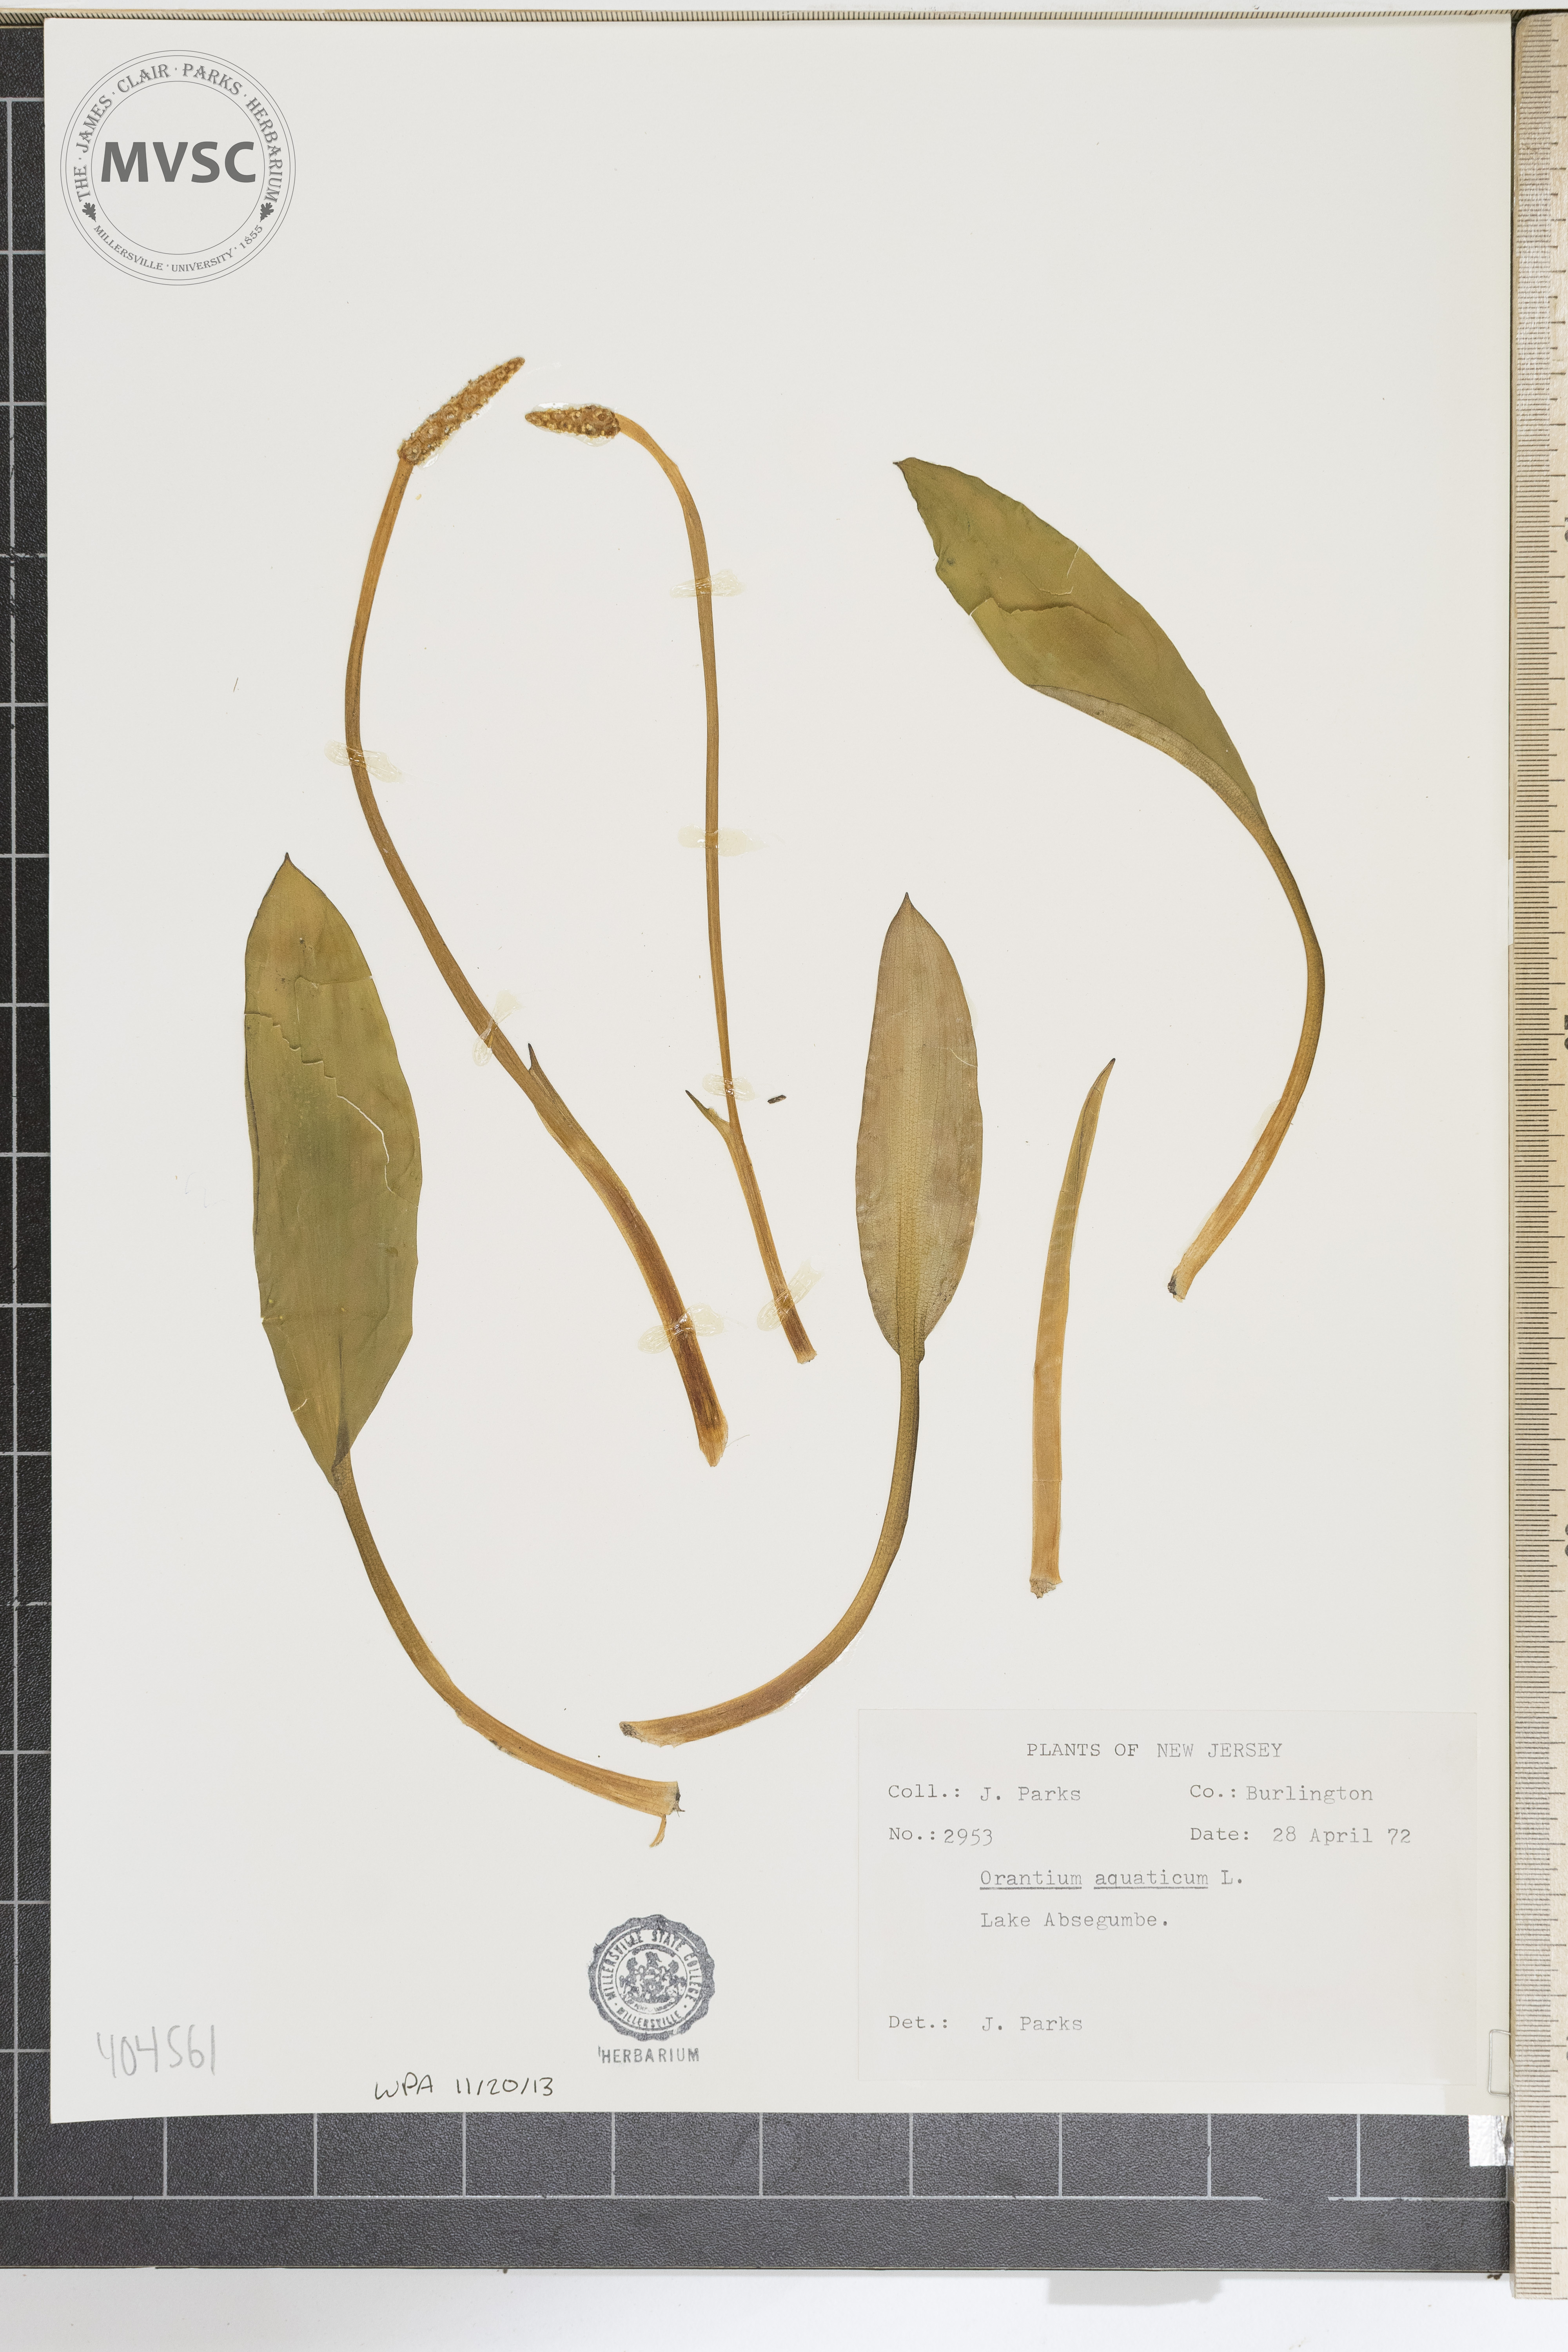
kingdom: Plantae
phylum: Tracheophyta
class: Liliopsida
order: Alismatales
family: Araceae
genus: Orontium
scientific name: Orontium aquaticum
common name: Golden-club
